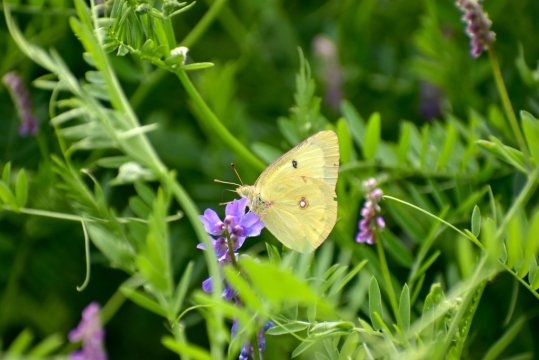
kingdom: Animalia
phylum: Arthropoda
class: Insecta
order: Lepidoptera
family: Pieridae
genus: Colias
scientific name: Colias philodice
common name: Clouded Sulphur
